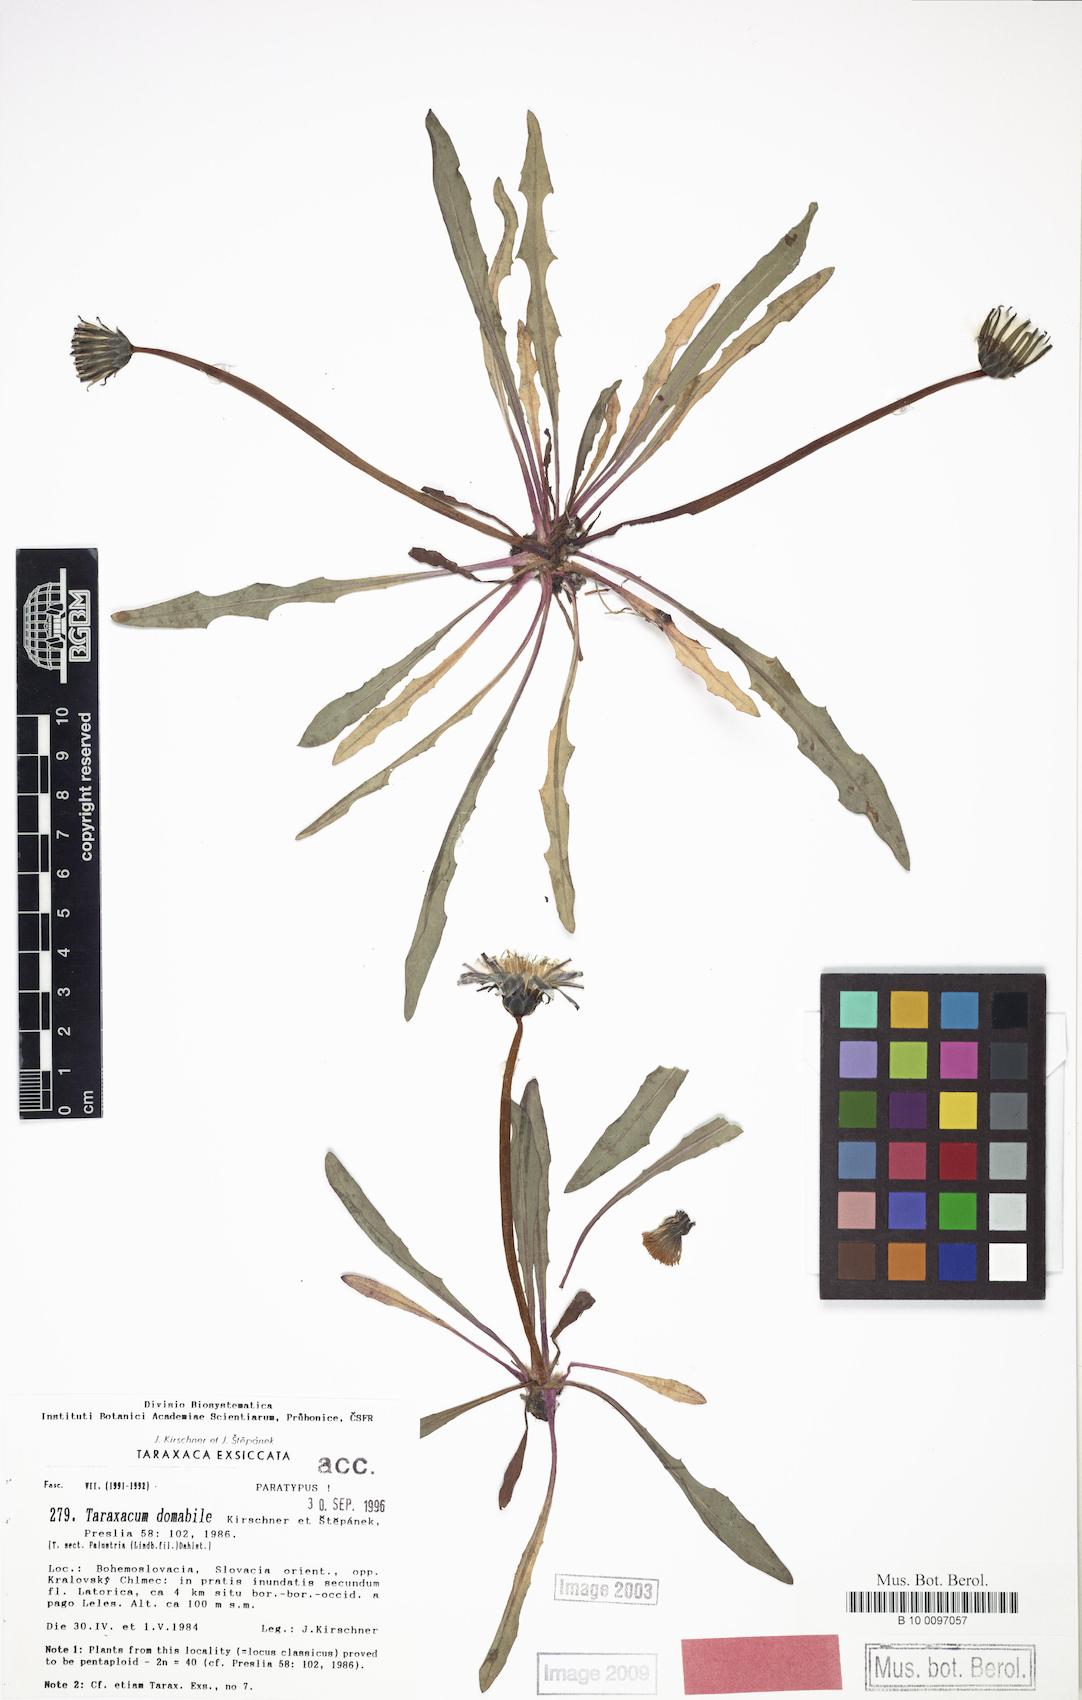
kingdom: Plantae
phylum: Tracheophyta
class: Magnoliopsida
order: Asterales
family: Asteraceae
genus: Taraxacum
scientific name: Taraxacum domabile
